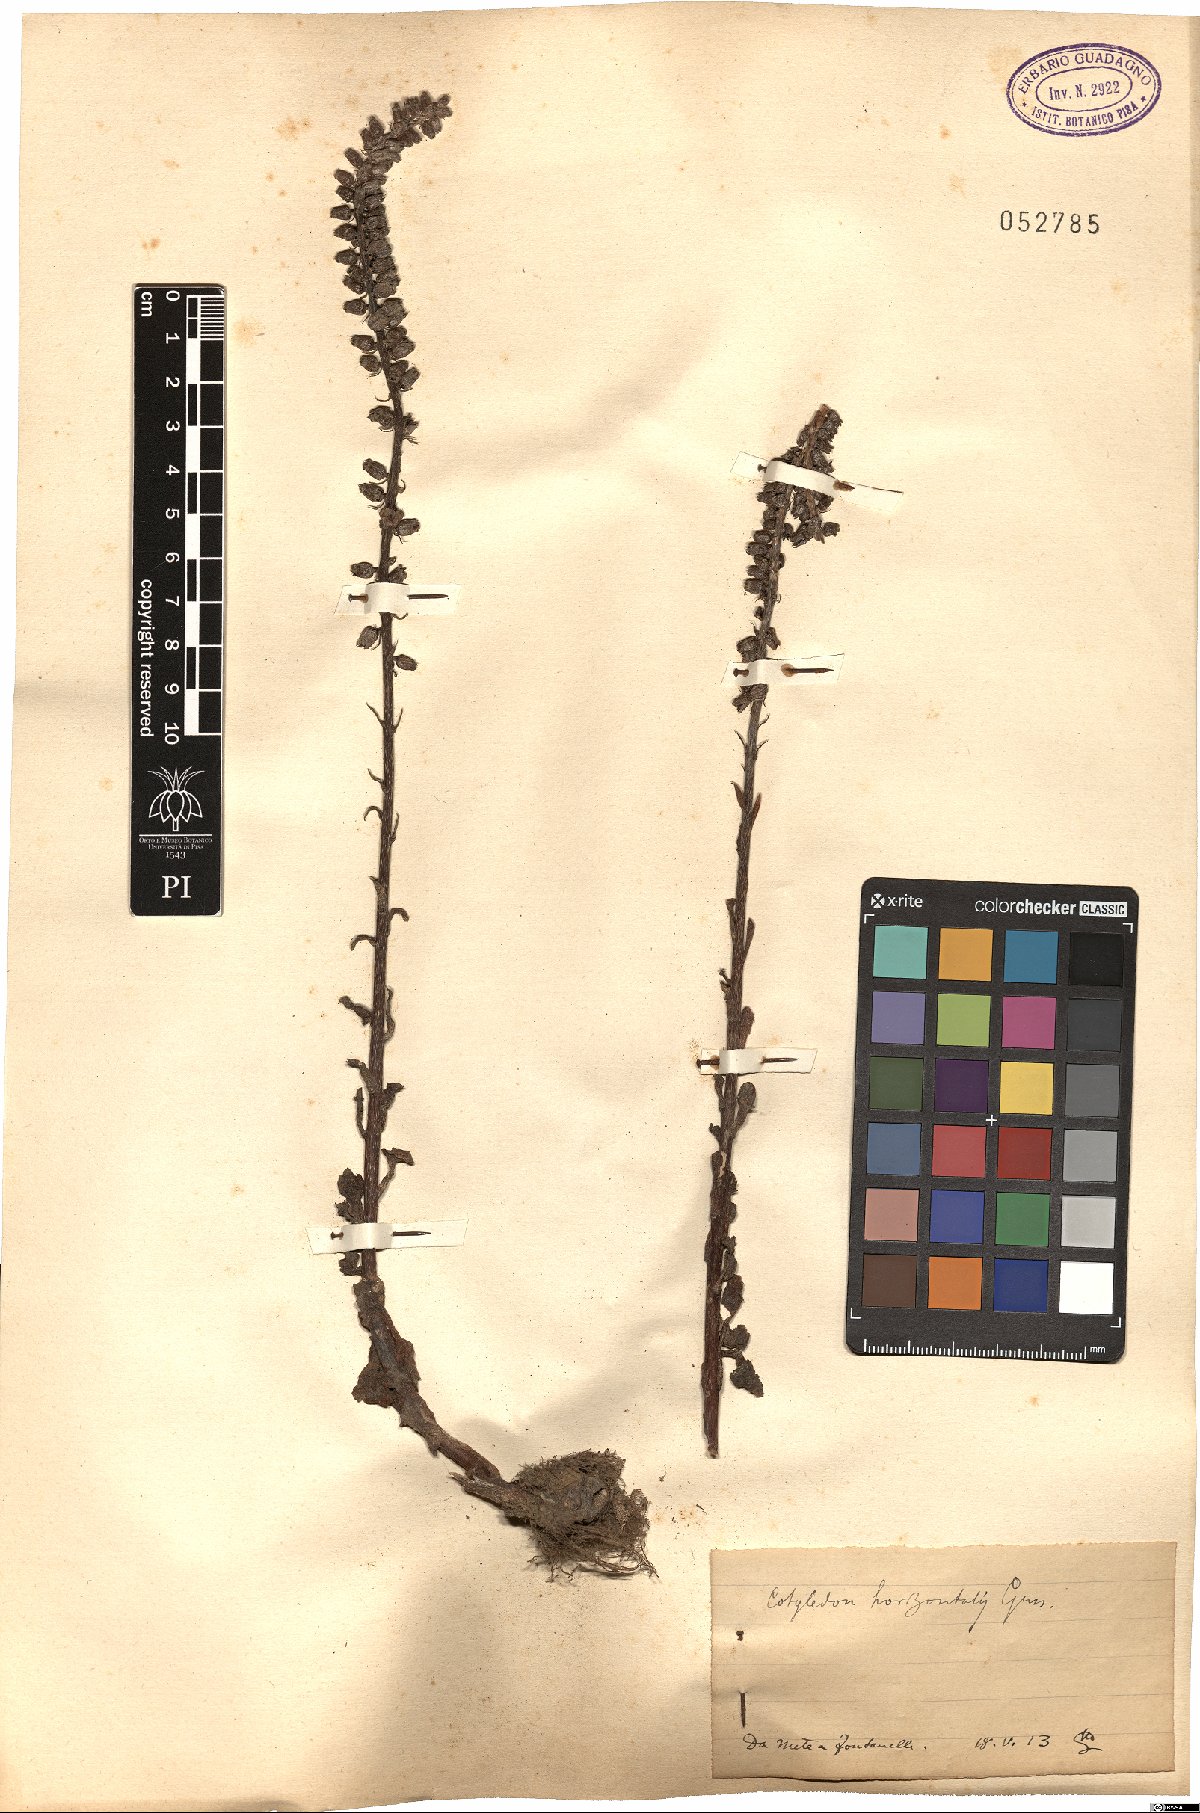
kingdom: Plantae
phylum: Tracheophyta
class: Magnoliopsida
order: Saxifragales
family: Crassulaceae
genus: Umbilicus
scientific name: Umbilicus horizontalis
